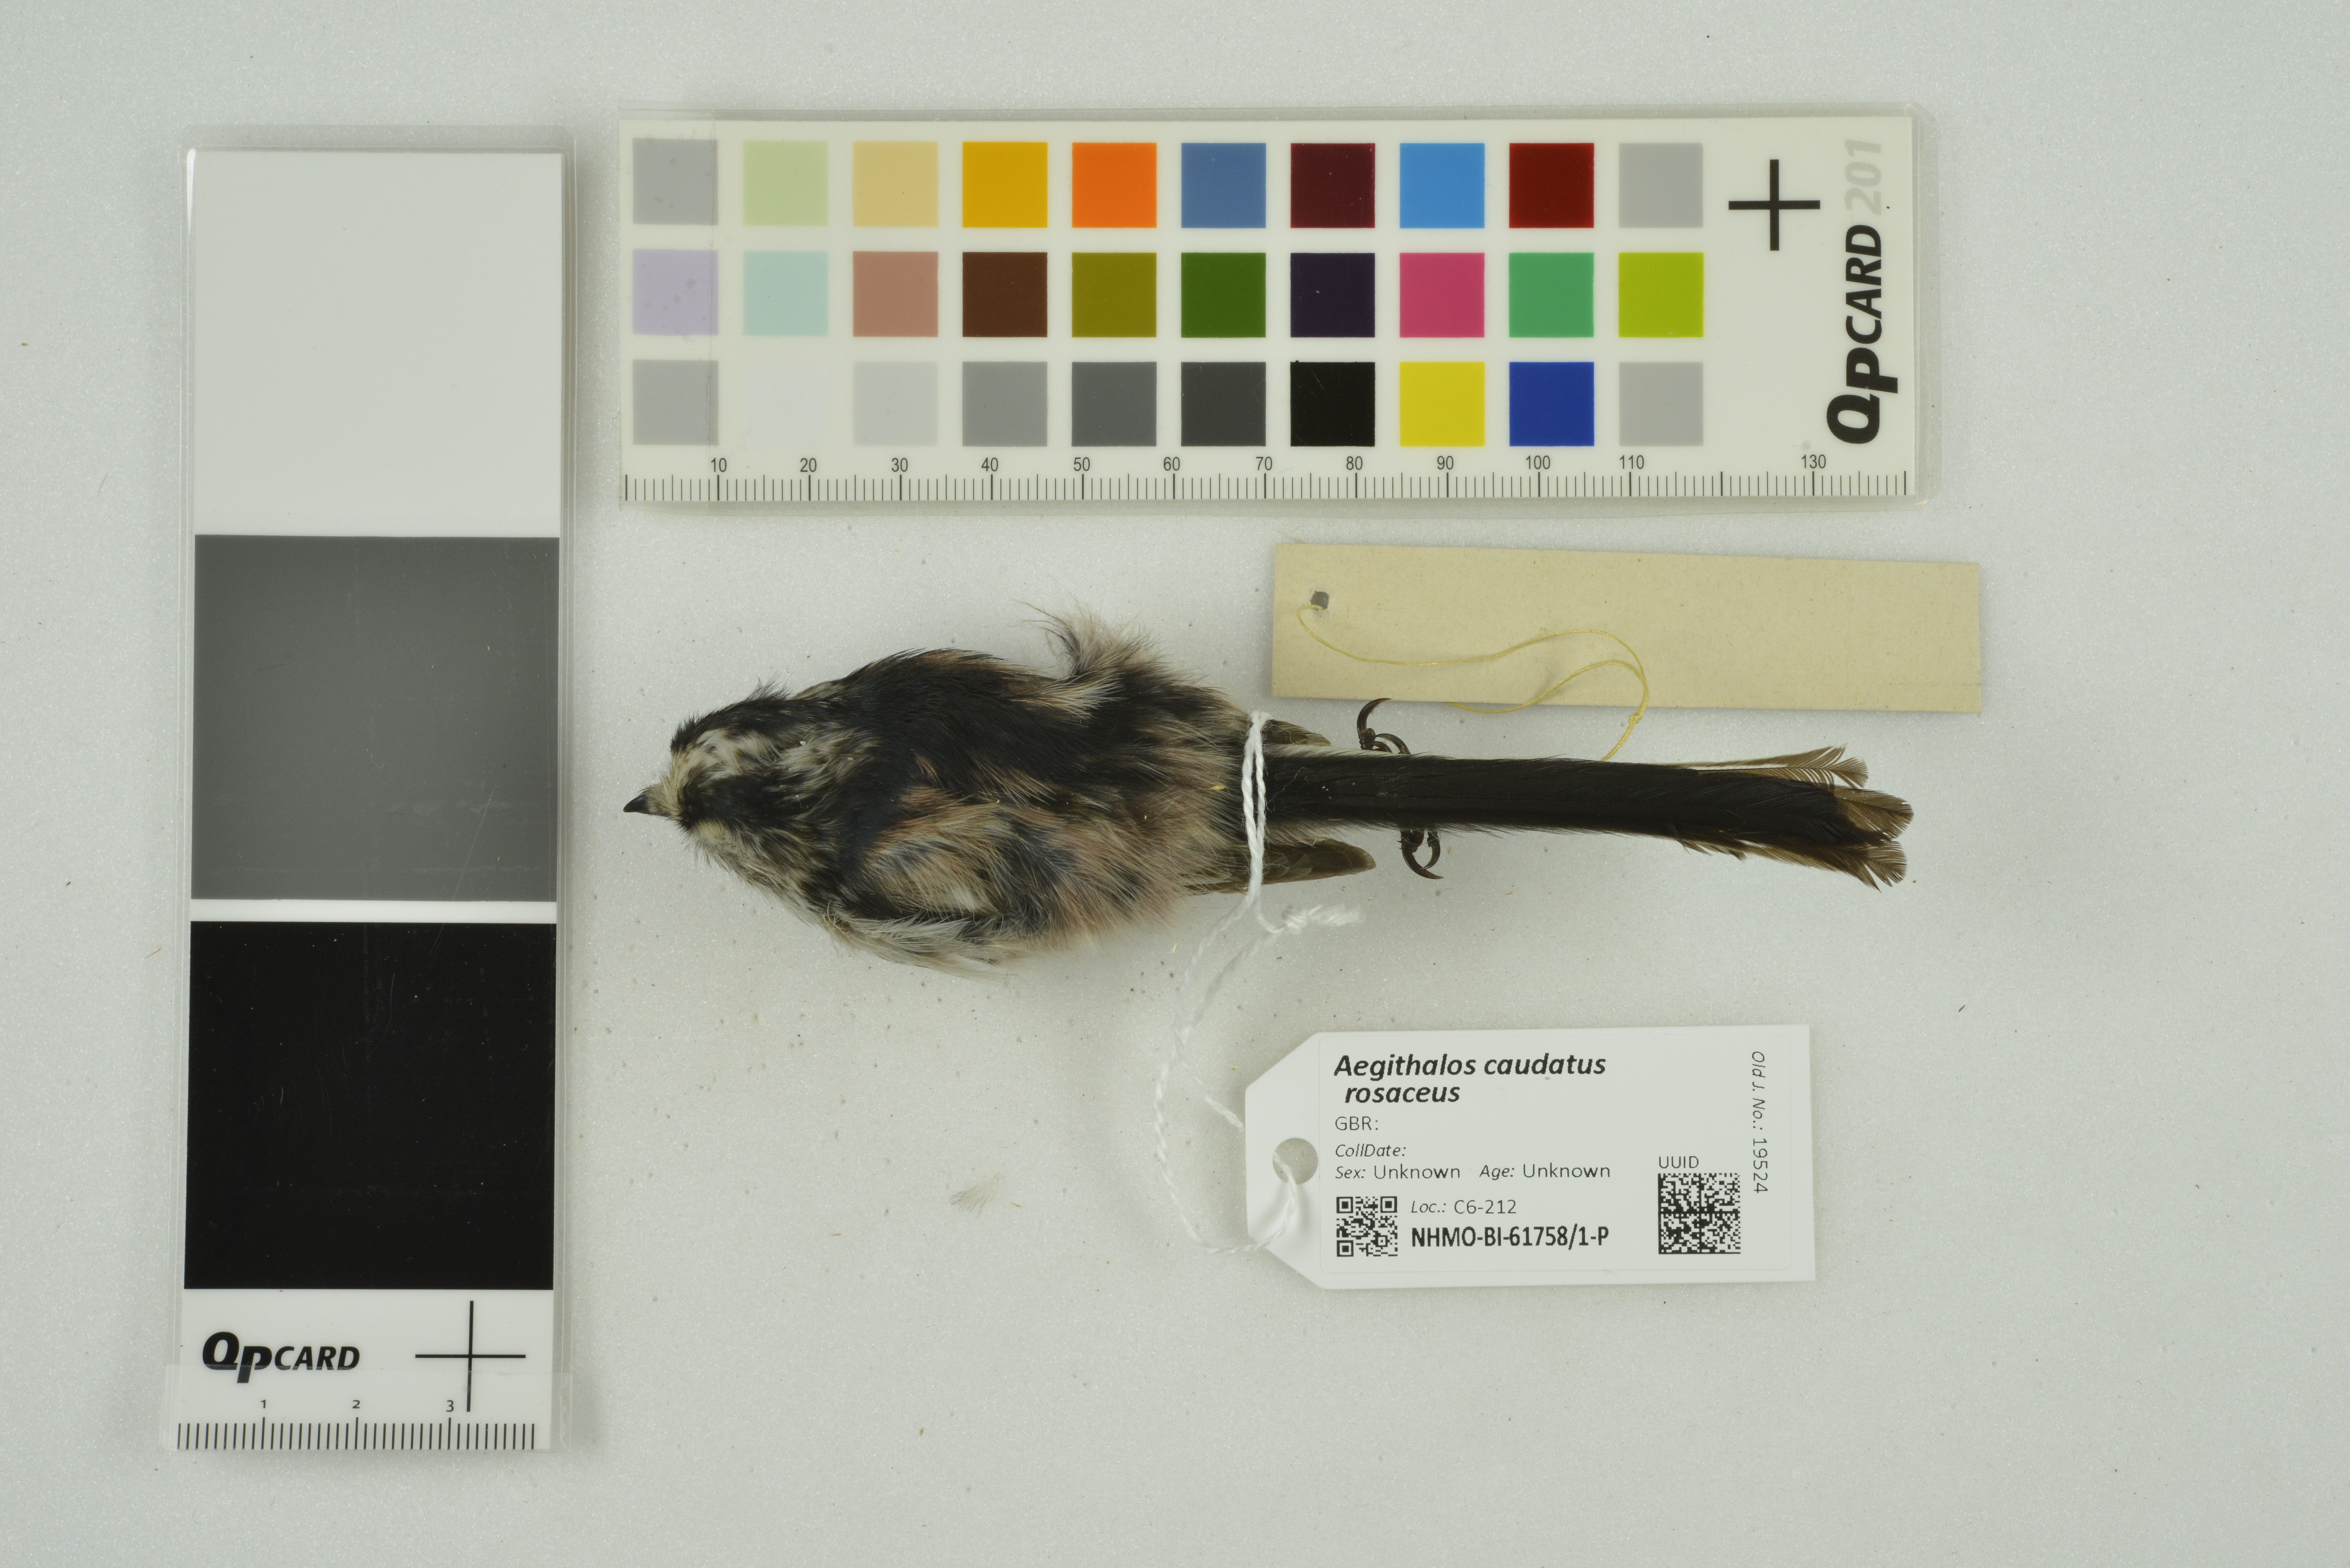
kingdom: Animalia
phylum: Chordata
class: Aves
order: Passeriformes
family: Aegithalidae
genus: Aegithalos
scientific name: Aegithalos caudatus
